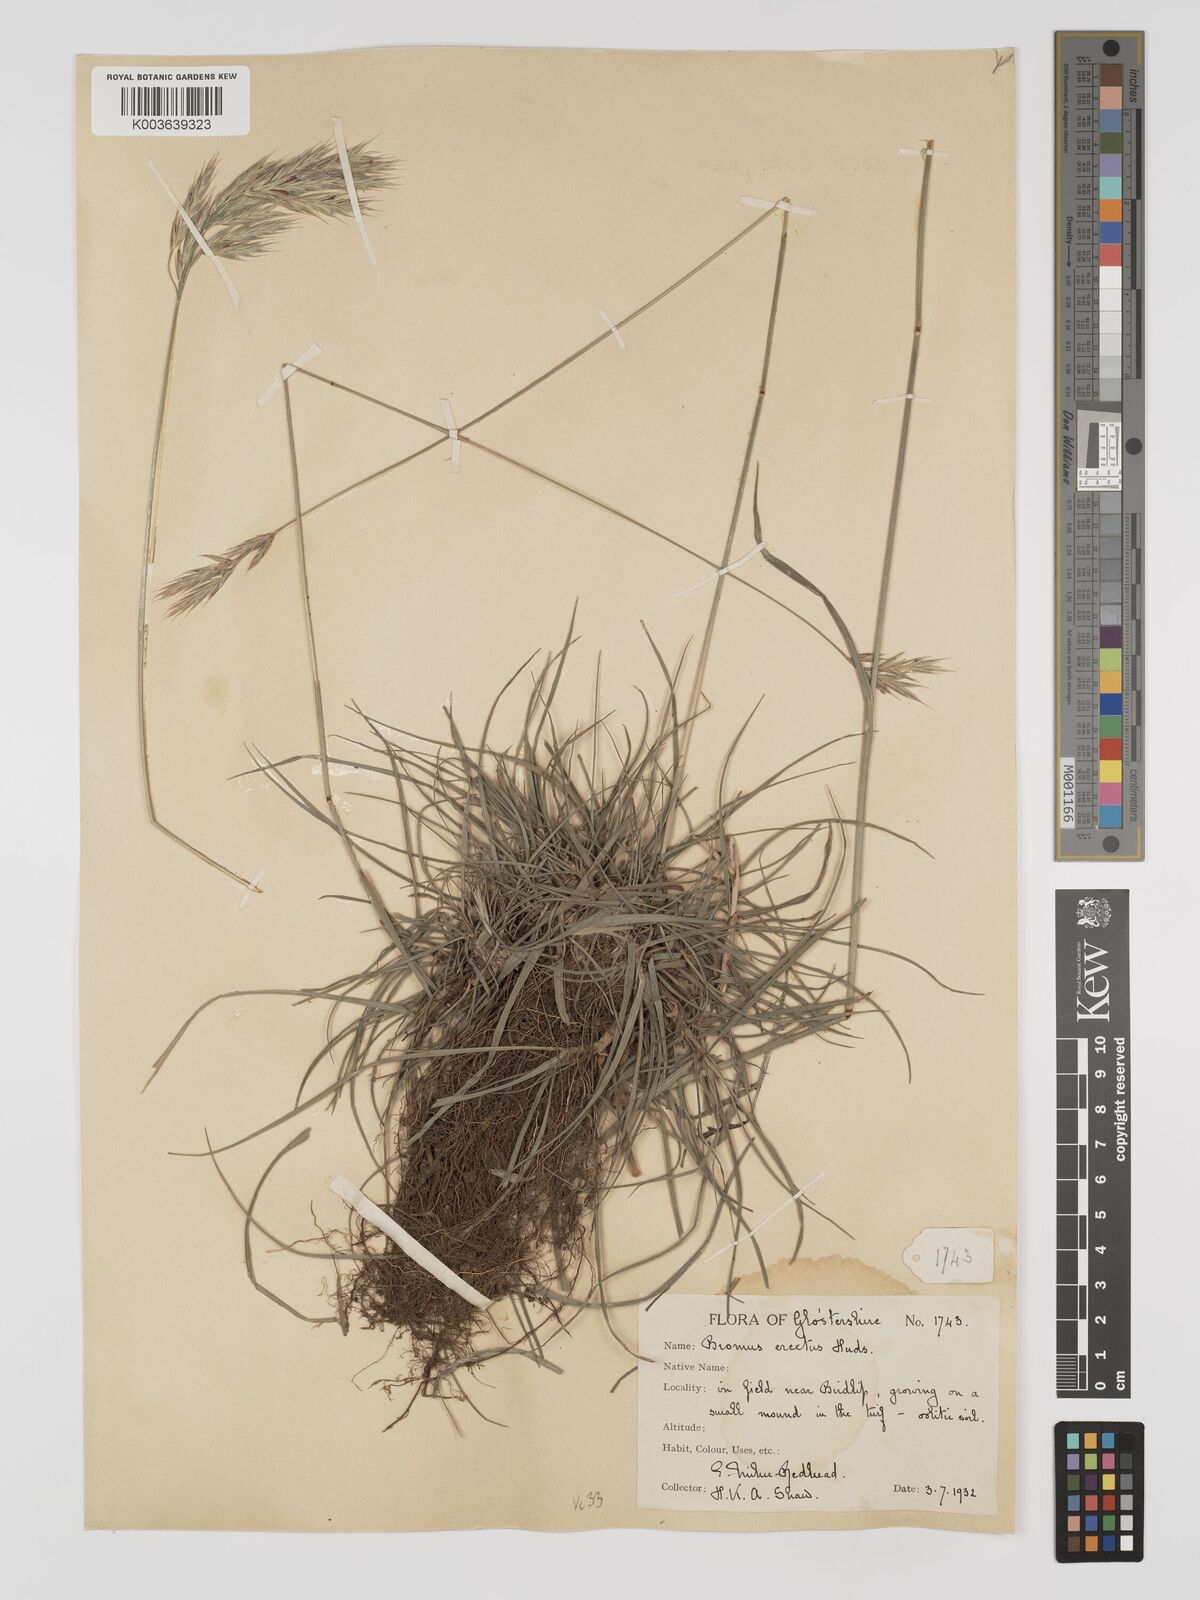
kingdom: Plantae
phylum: Tracheophyta
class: Liliopsida
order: Poales
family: Poaceae
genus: Bromus
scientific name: Bromus erectus
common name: Erect brome
